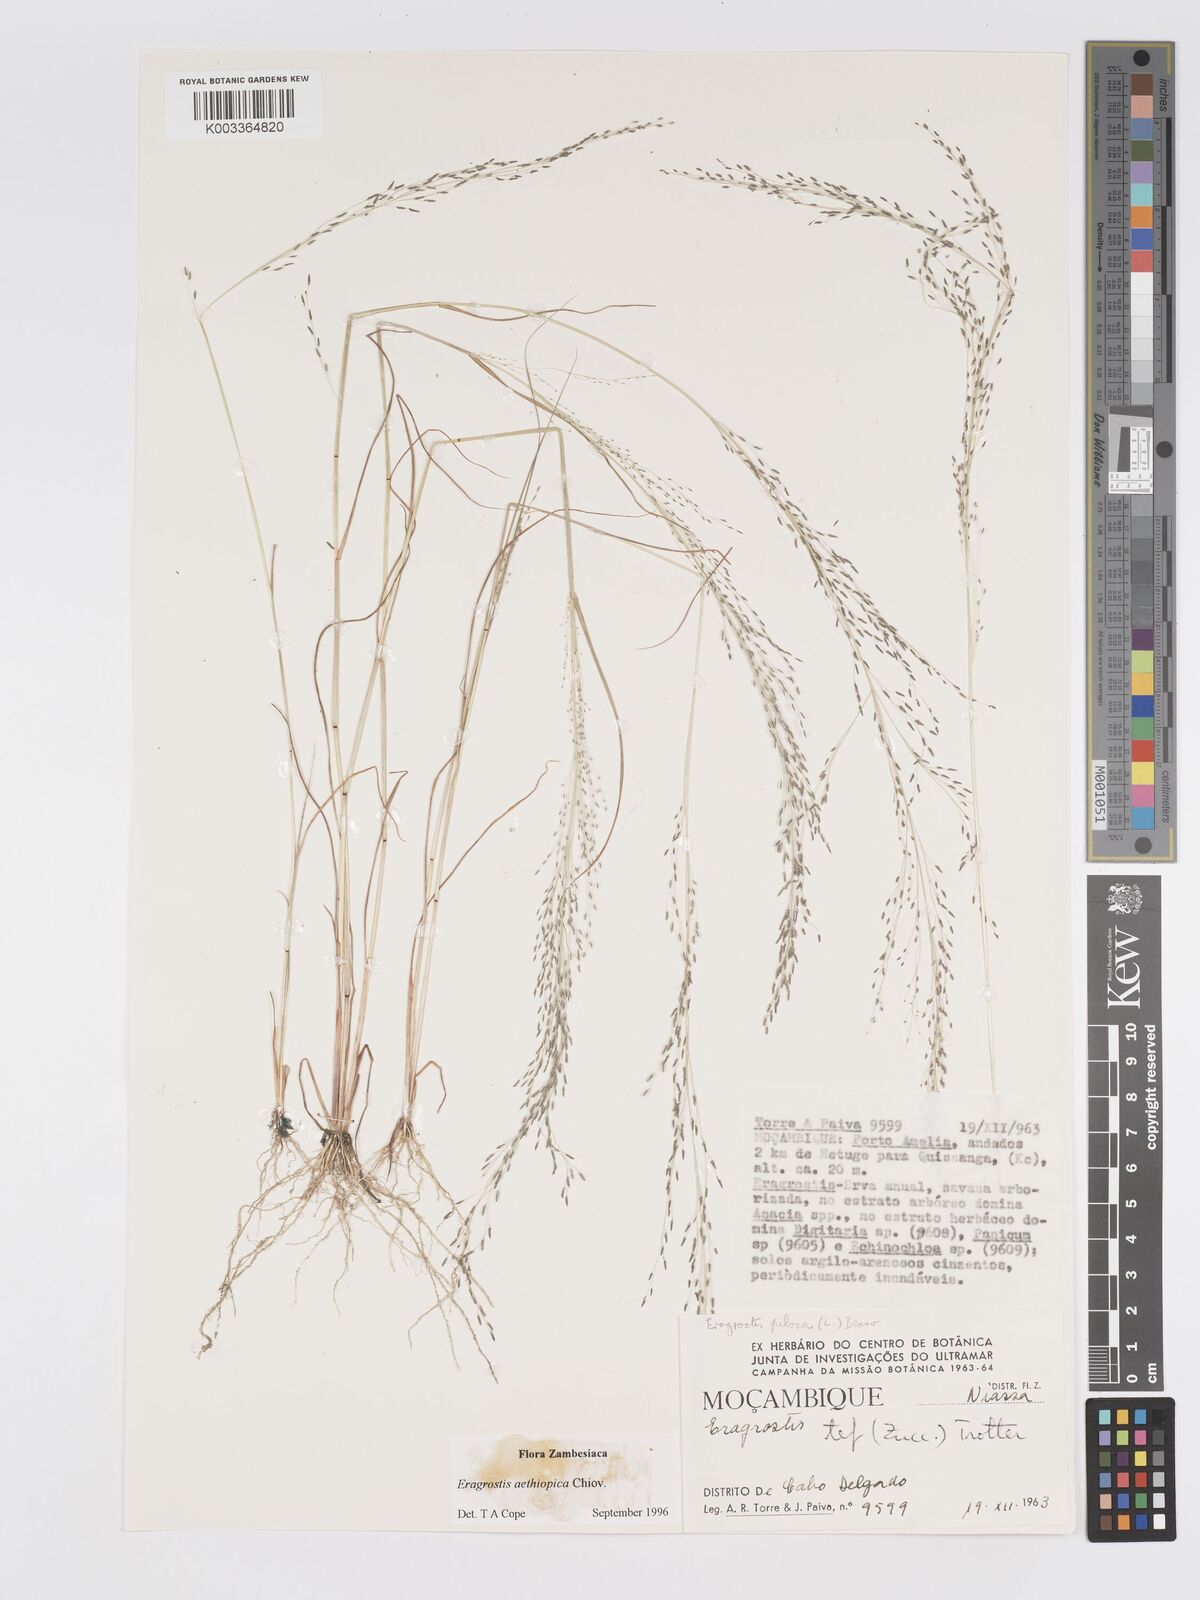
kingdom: Plantae
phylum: Tracheophyta
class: Liliopsida
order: Poales
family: Poaceae
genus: Eragrostis
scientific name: Eragrostis aethiopica
